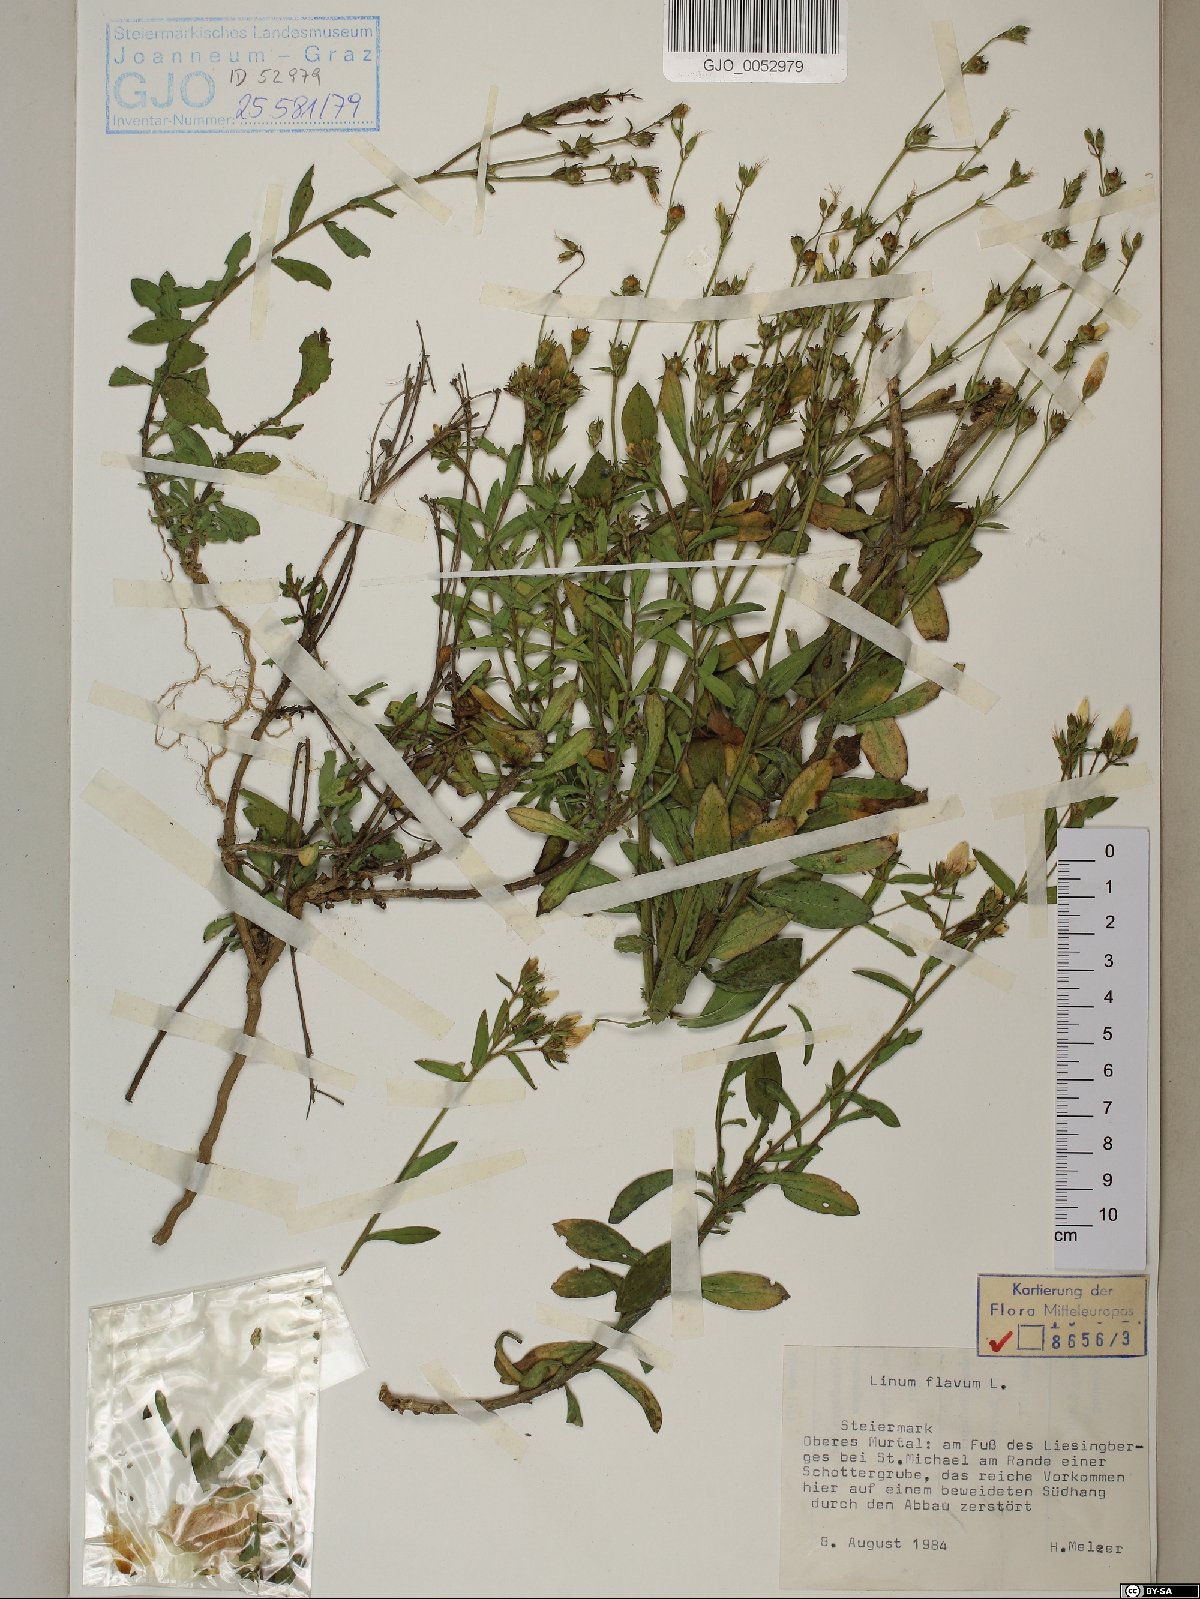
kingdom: Plantae
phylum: Tracheophyta
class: Magnoliopsida
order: Malpighiales
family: Linaceae
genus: Linum
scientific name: Linum flavum
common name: Yellow flax
